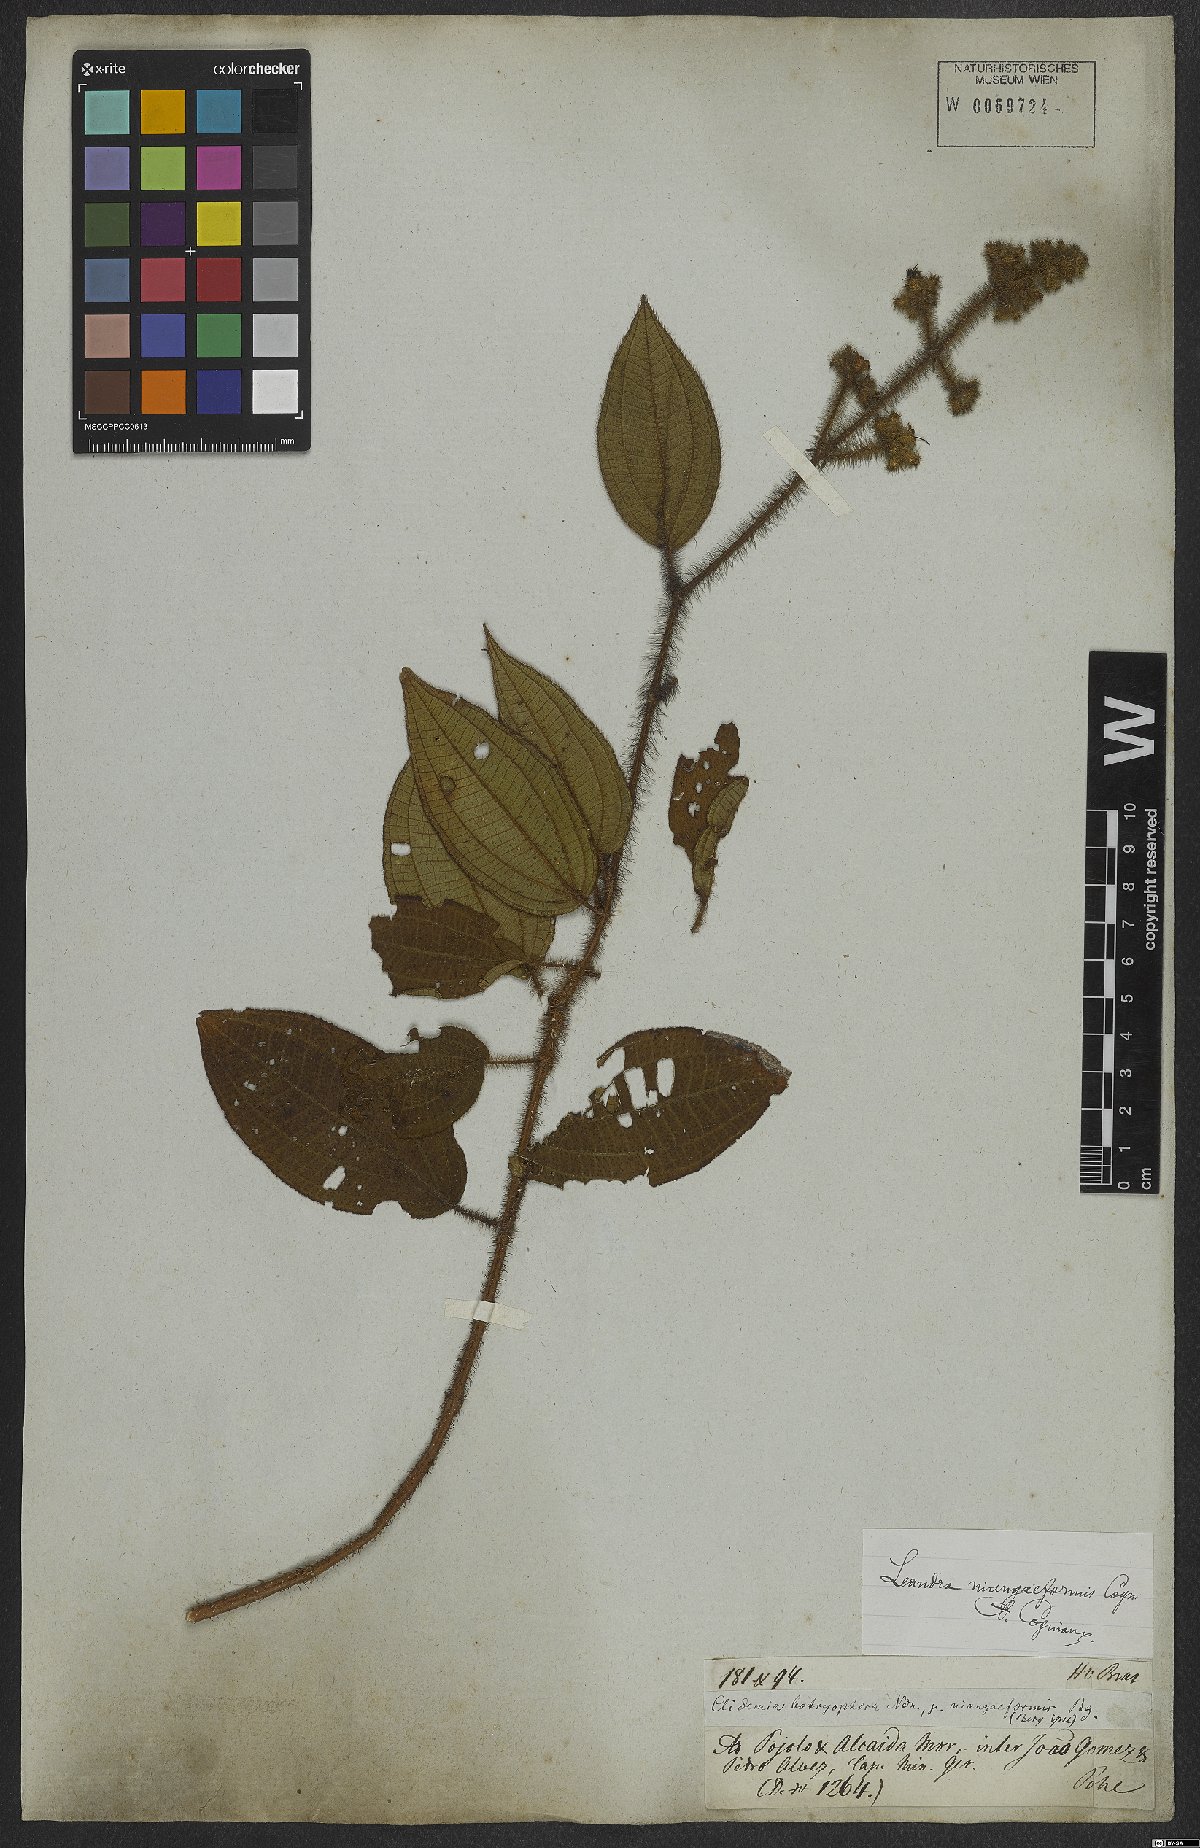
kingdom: Plantae
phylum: Tracheophyta
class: Magnoliopsida
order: Myrtales
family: Melastomataceae
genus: Miconia
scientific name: Miconia niangaeformis
